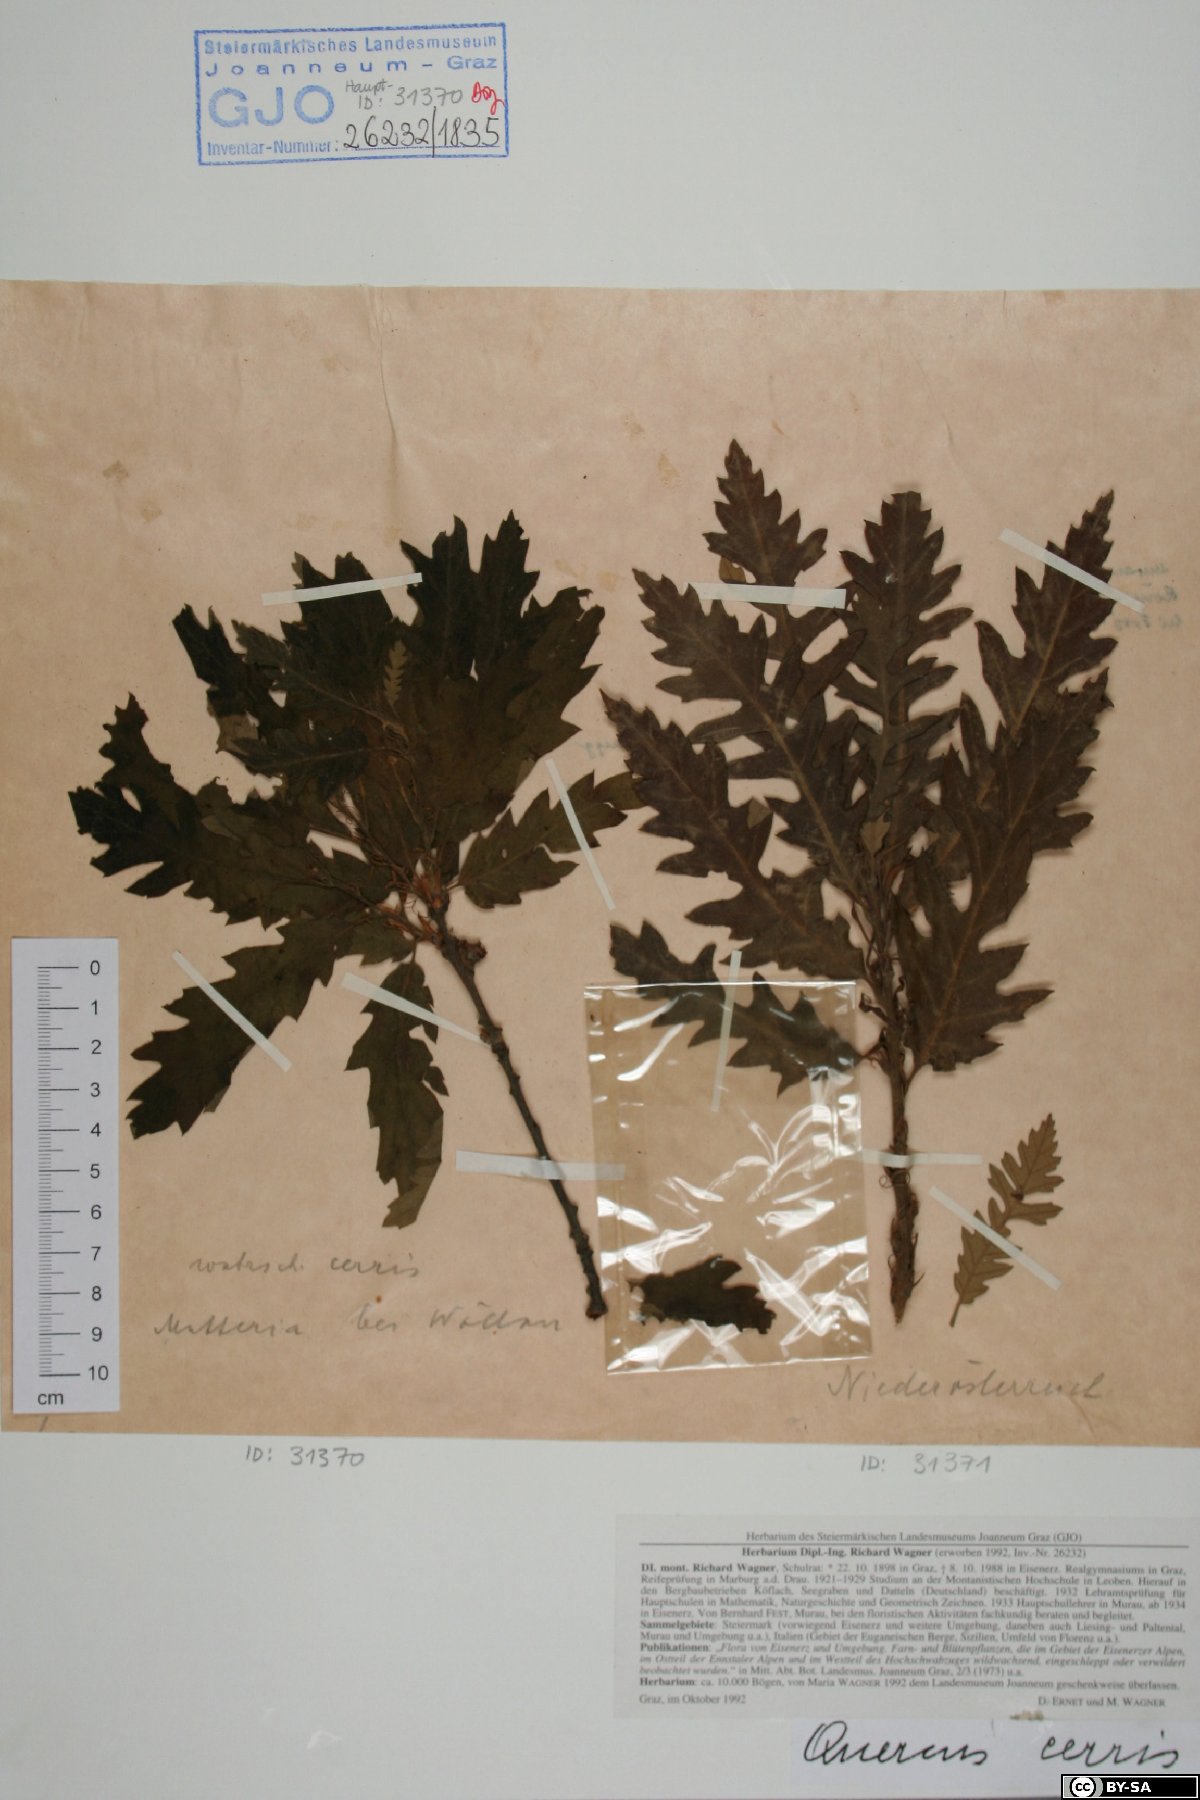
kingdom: Plantae
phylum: Tracheophyta
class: Magnoliopsida
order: Fagales
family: Fagaceae
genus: Quercus
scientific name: Quercus cerris
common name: Turkey oak
